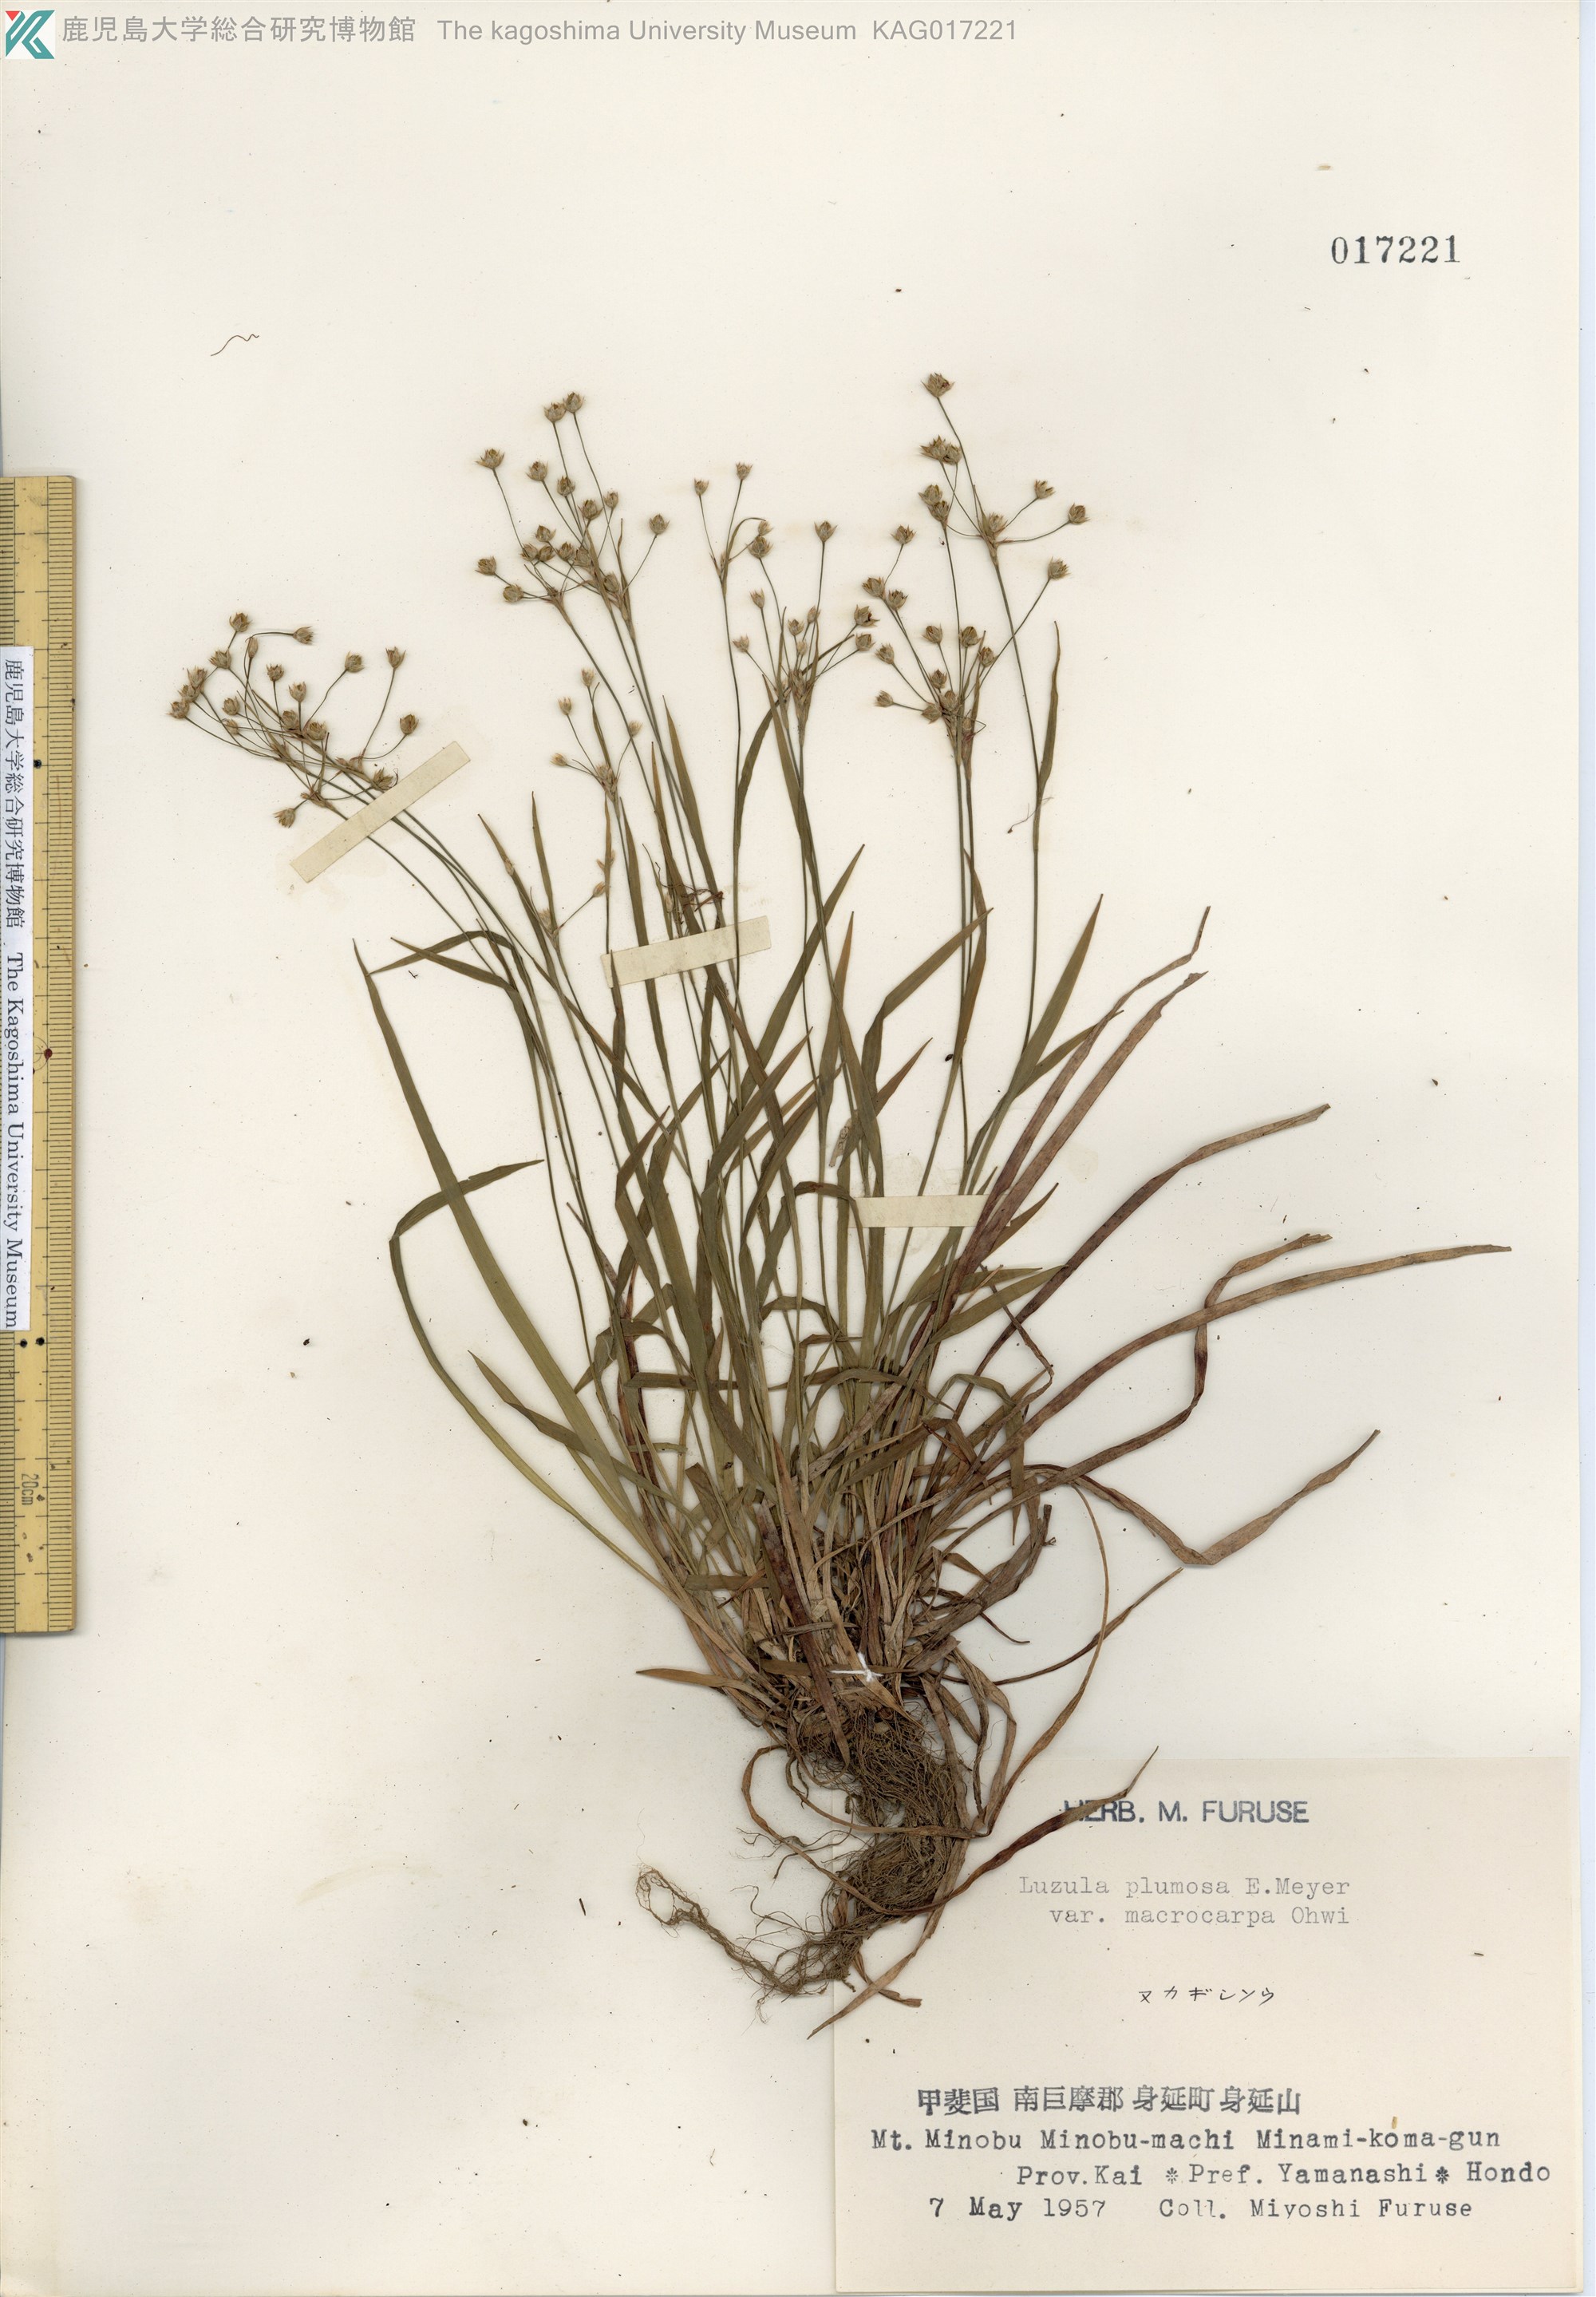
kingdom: Plantae
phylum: Tracheophyta
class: Liliopsida
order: Poales
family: Juncaceae
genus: Luzula
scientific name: Luzula plumosa
